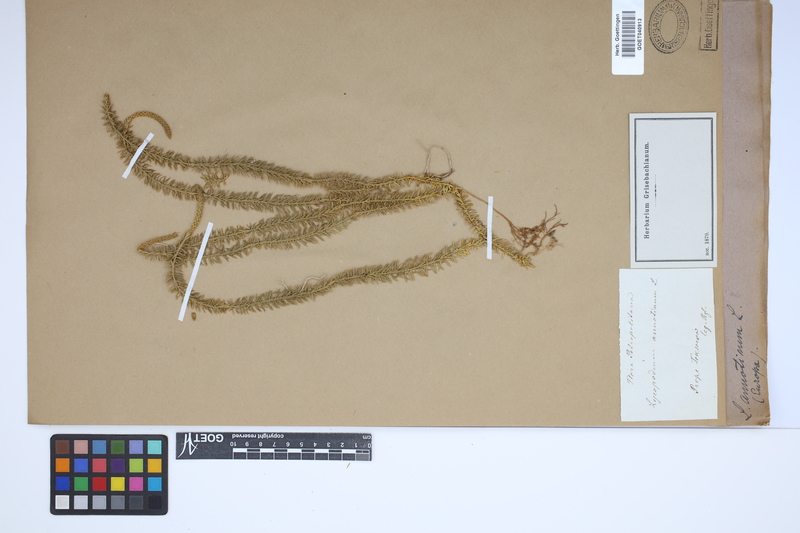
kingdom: Plantae
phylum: Tracheophyta
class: Lycopodiopsida
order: Lycopodiales
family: Lycopodiaceae
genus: Spinulum
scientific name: Spinulum annotinum
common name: Interrupted club-moss
